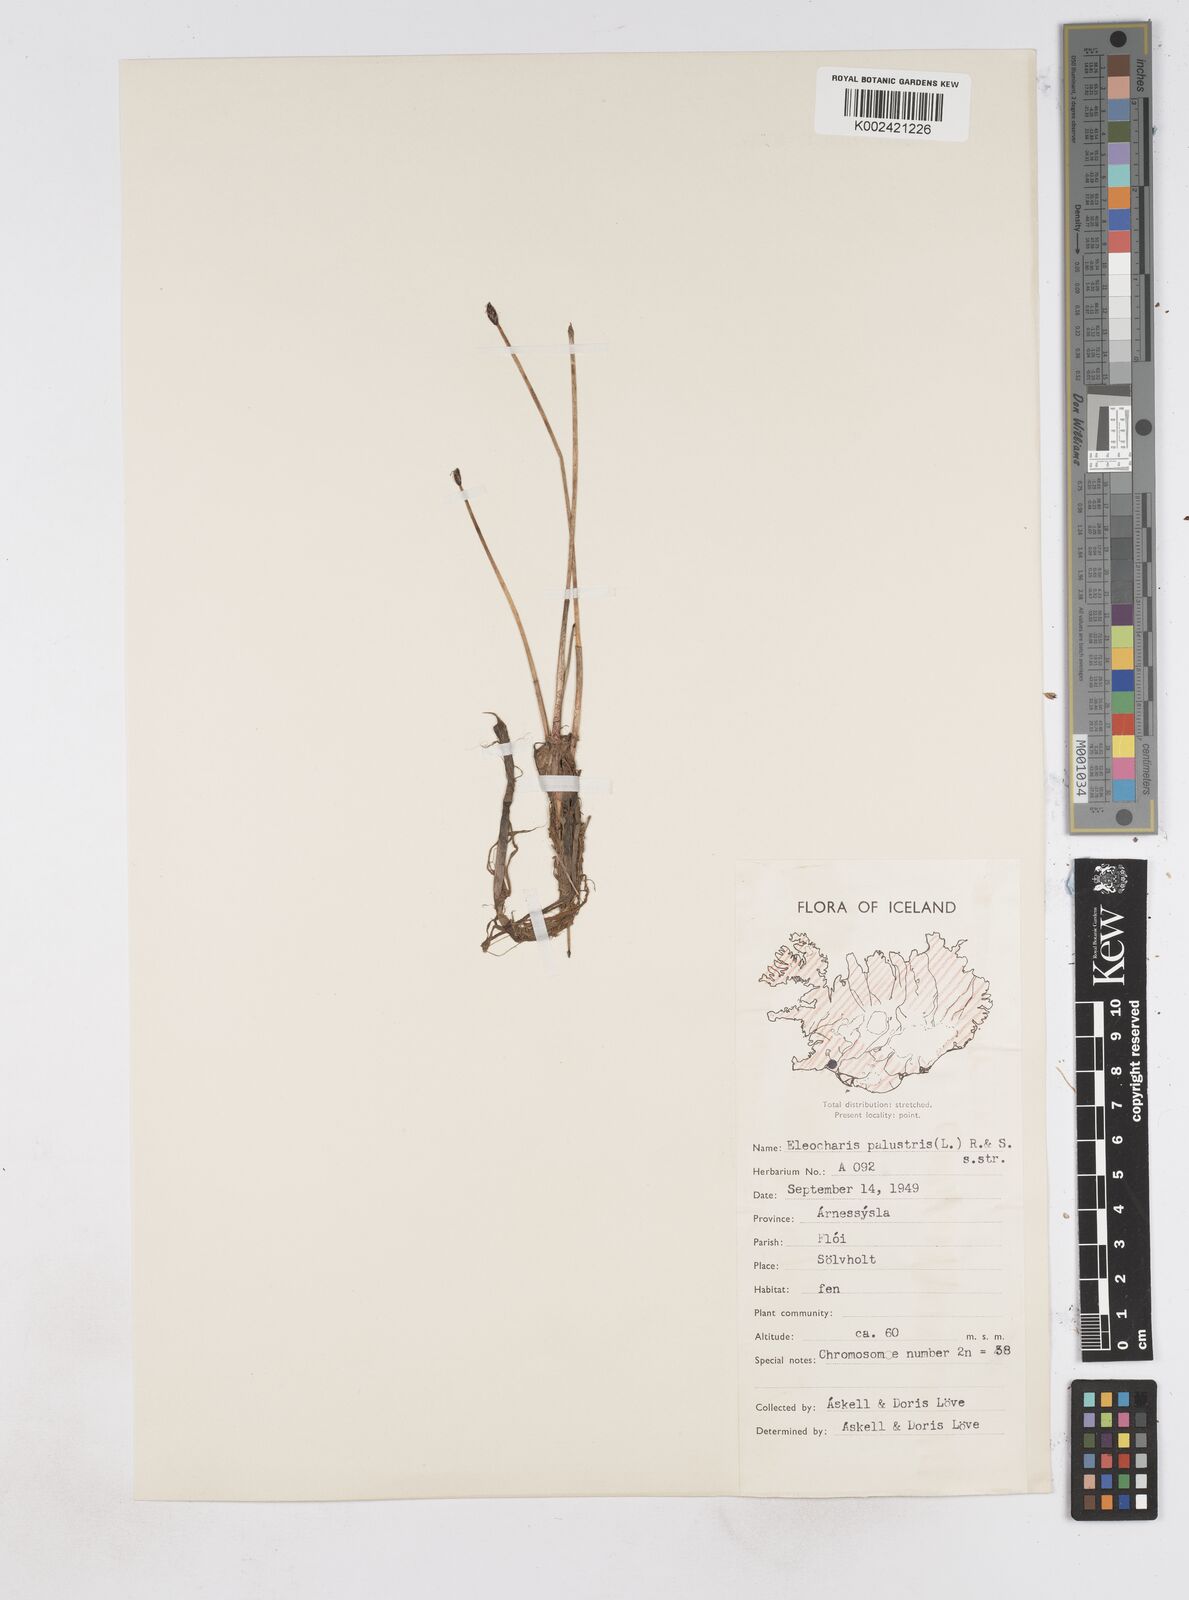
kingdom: Plantae
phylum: Tracheophyta
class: Liliopsida
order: Poales
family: Cyperaceae
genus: Eleocharis
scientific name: Eleocharis palustris
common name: Common spike-rush
